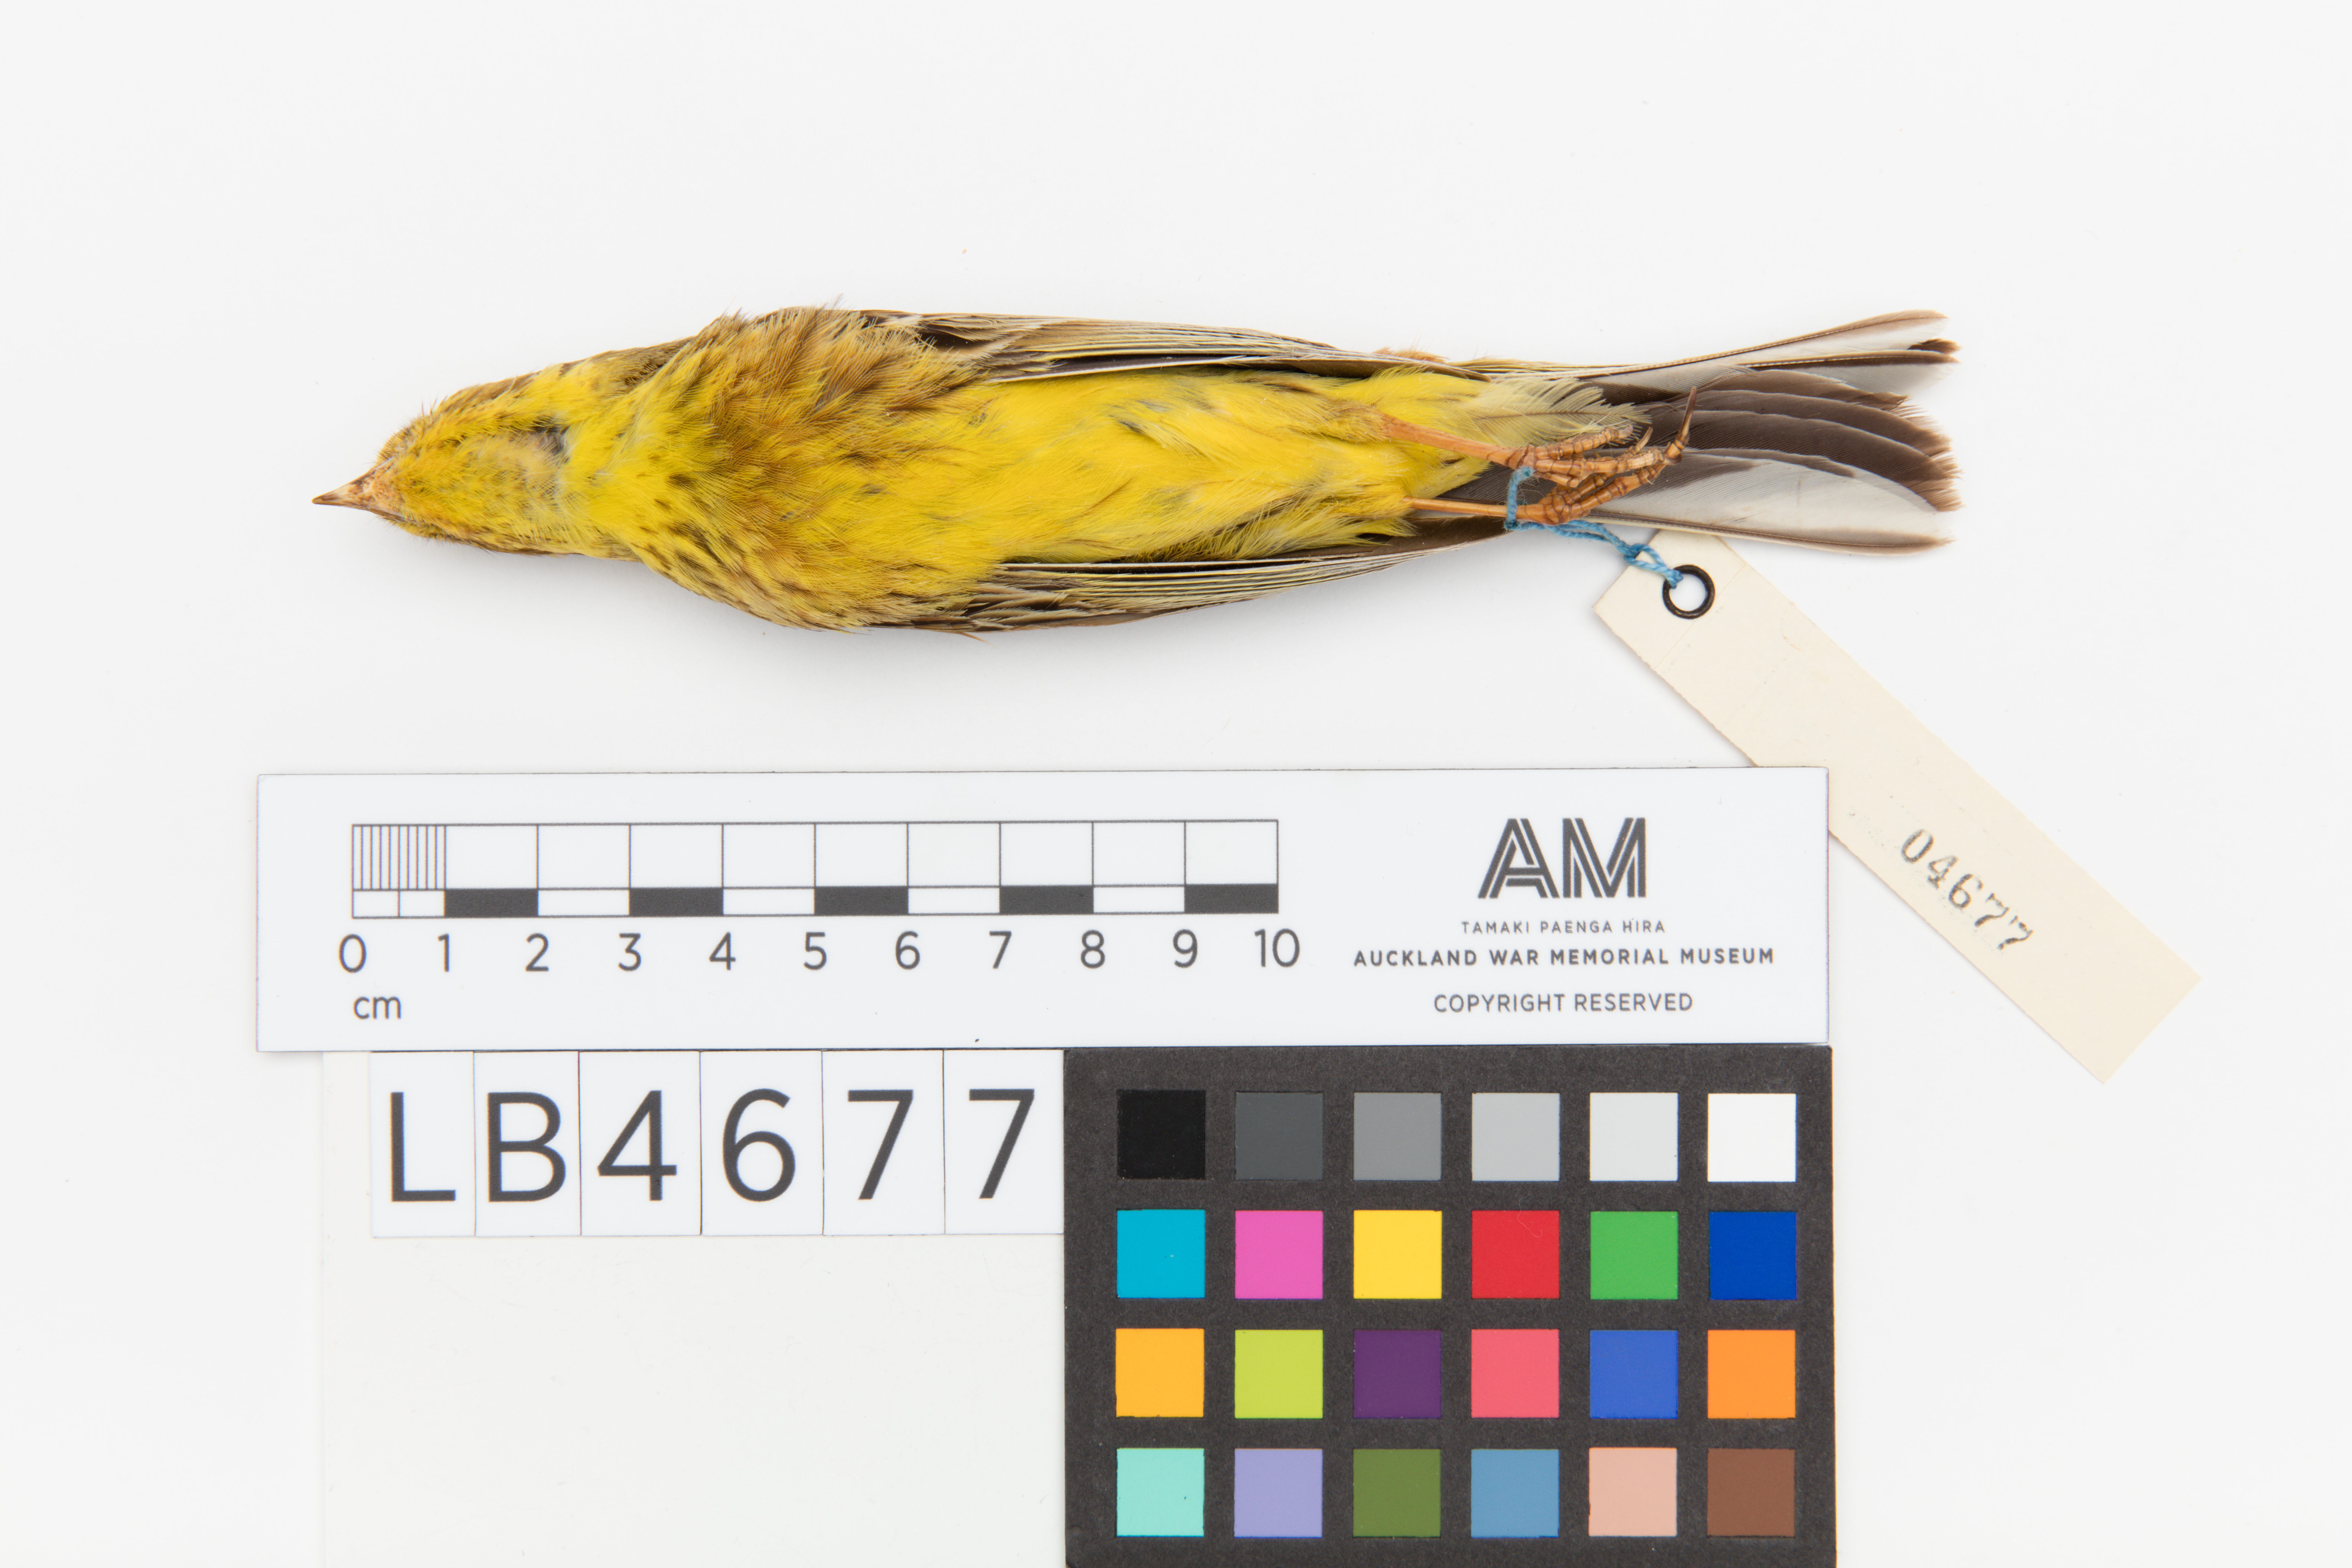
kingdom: Animalia
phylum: Chordata
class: Aves
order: Passeriformes
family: Emberizidae
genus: Emberiza
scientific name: Emberiza citrinella
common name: Yellowhammer
